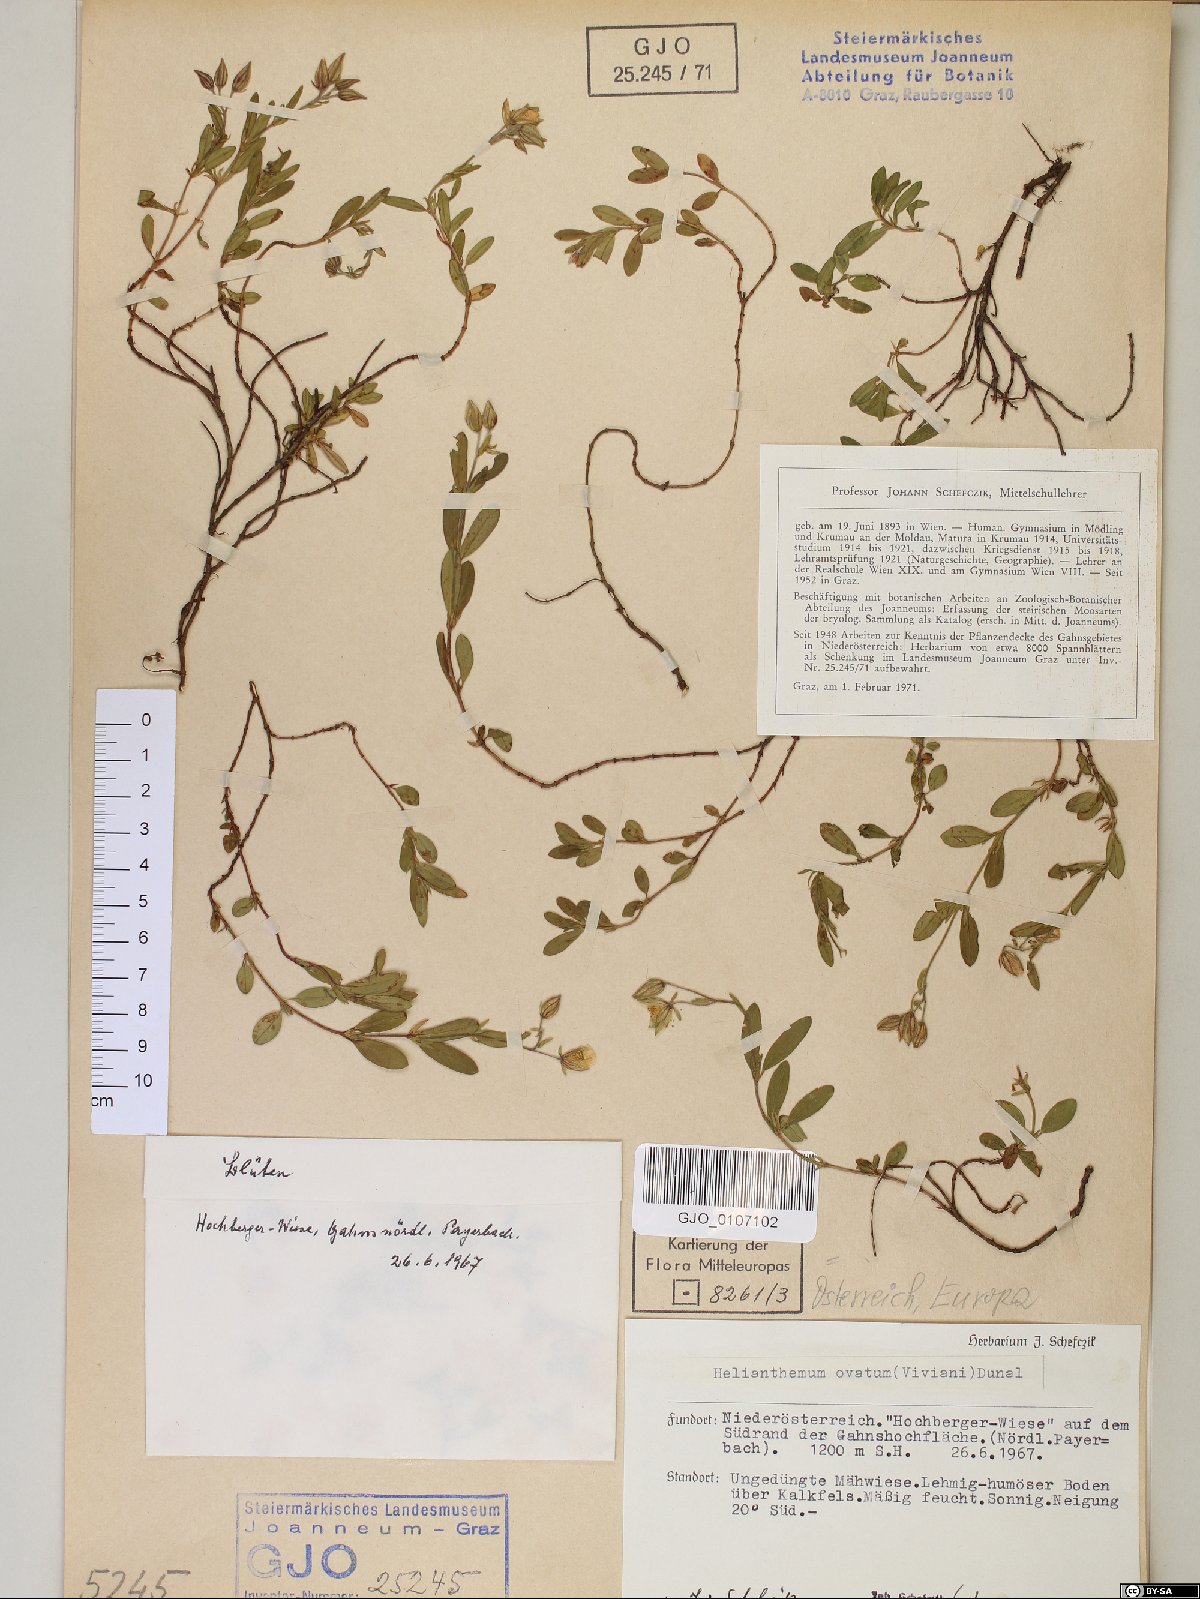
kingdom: Plantae
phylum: Tracheophyta
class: Magnoliopsida
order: Malvales
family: Cistaceae
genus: Helianthemum
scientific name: Helianthemum nummularium
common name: Common rock-rose
